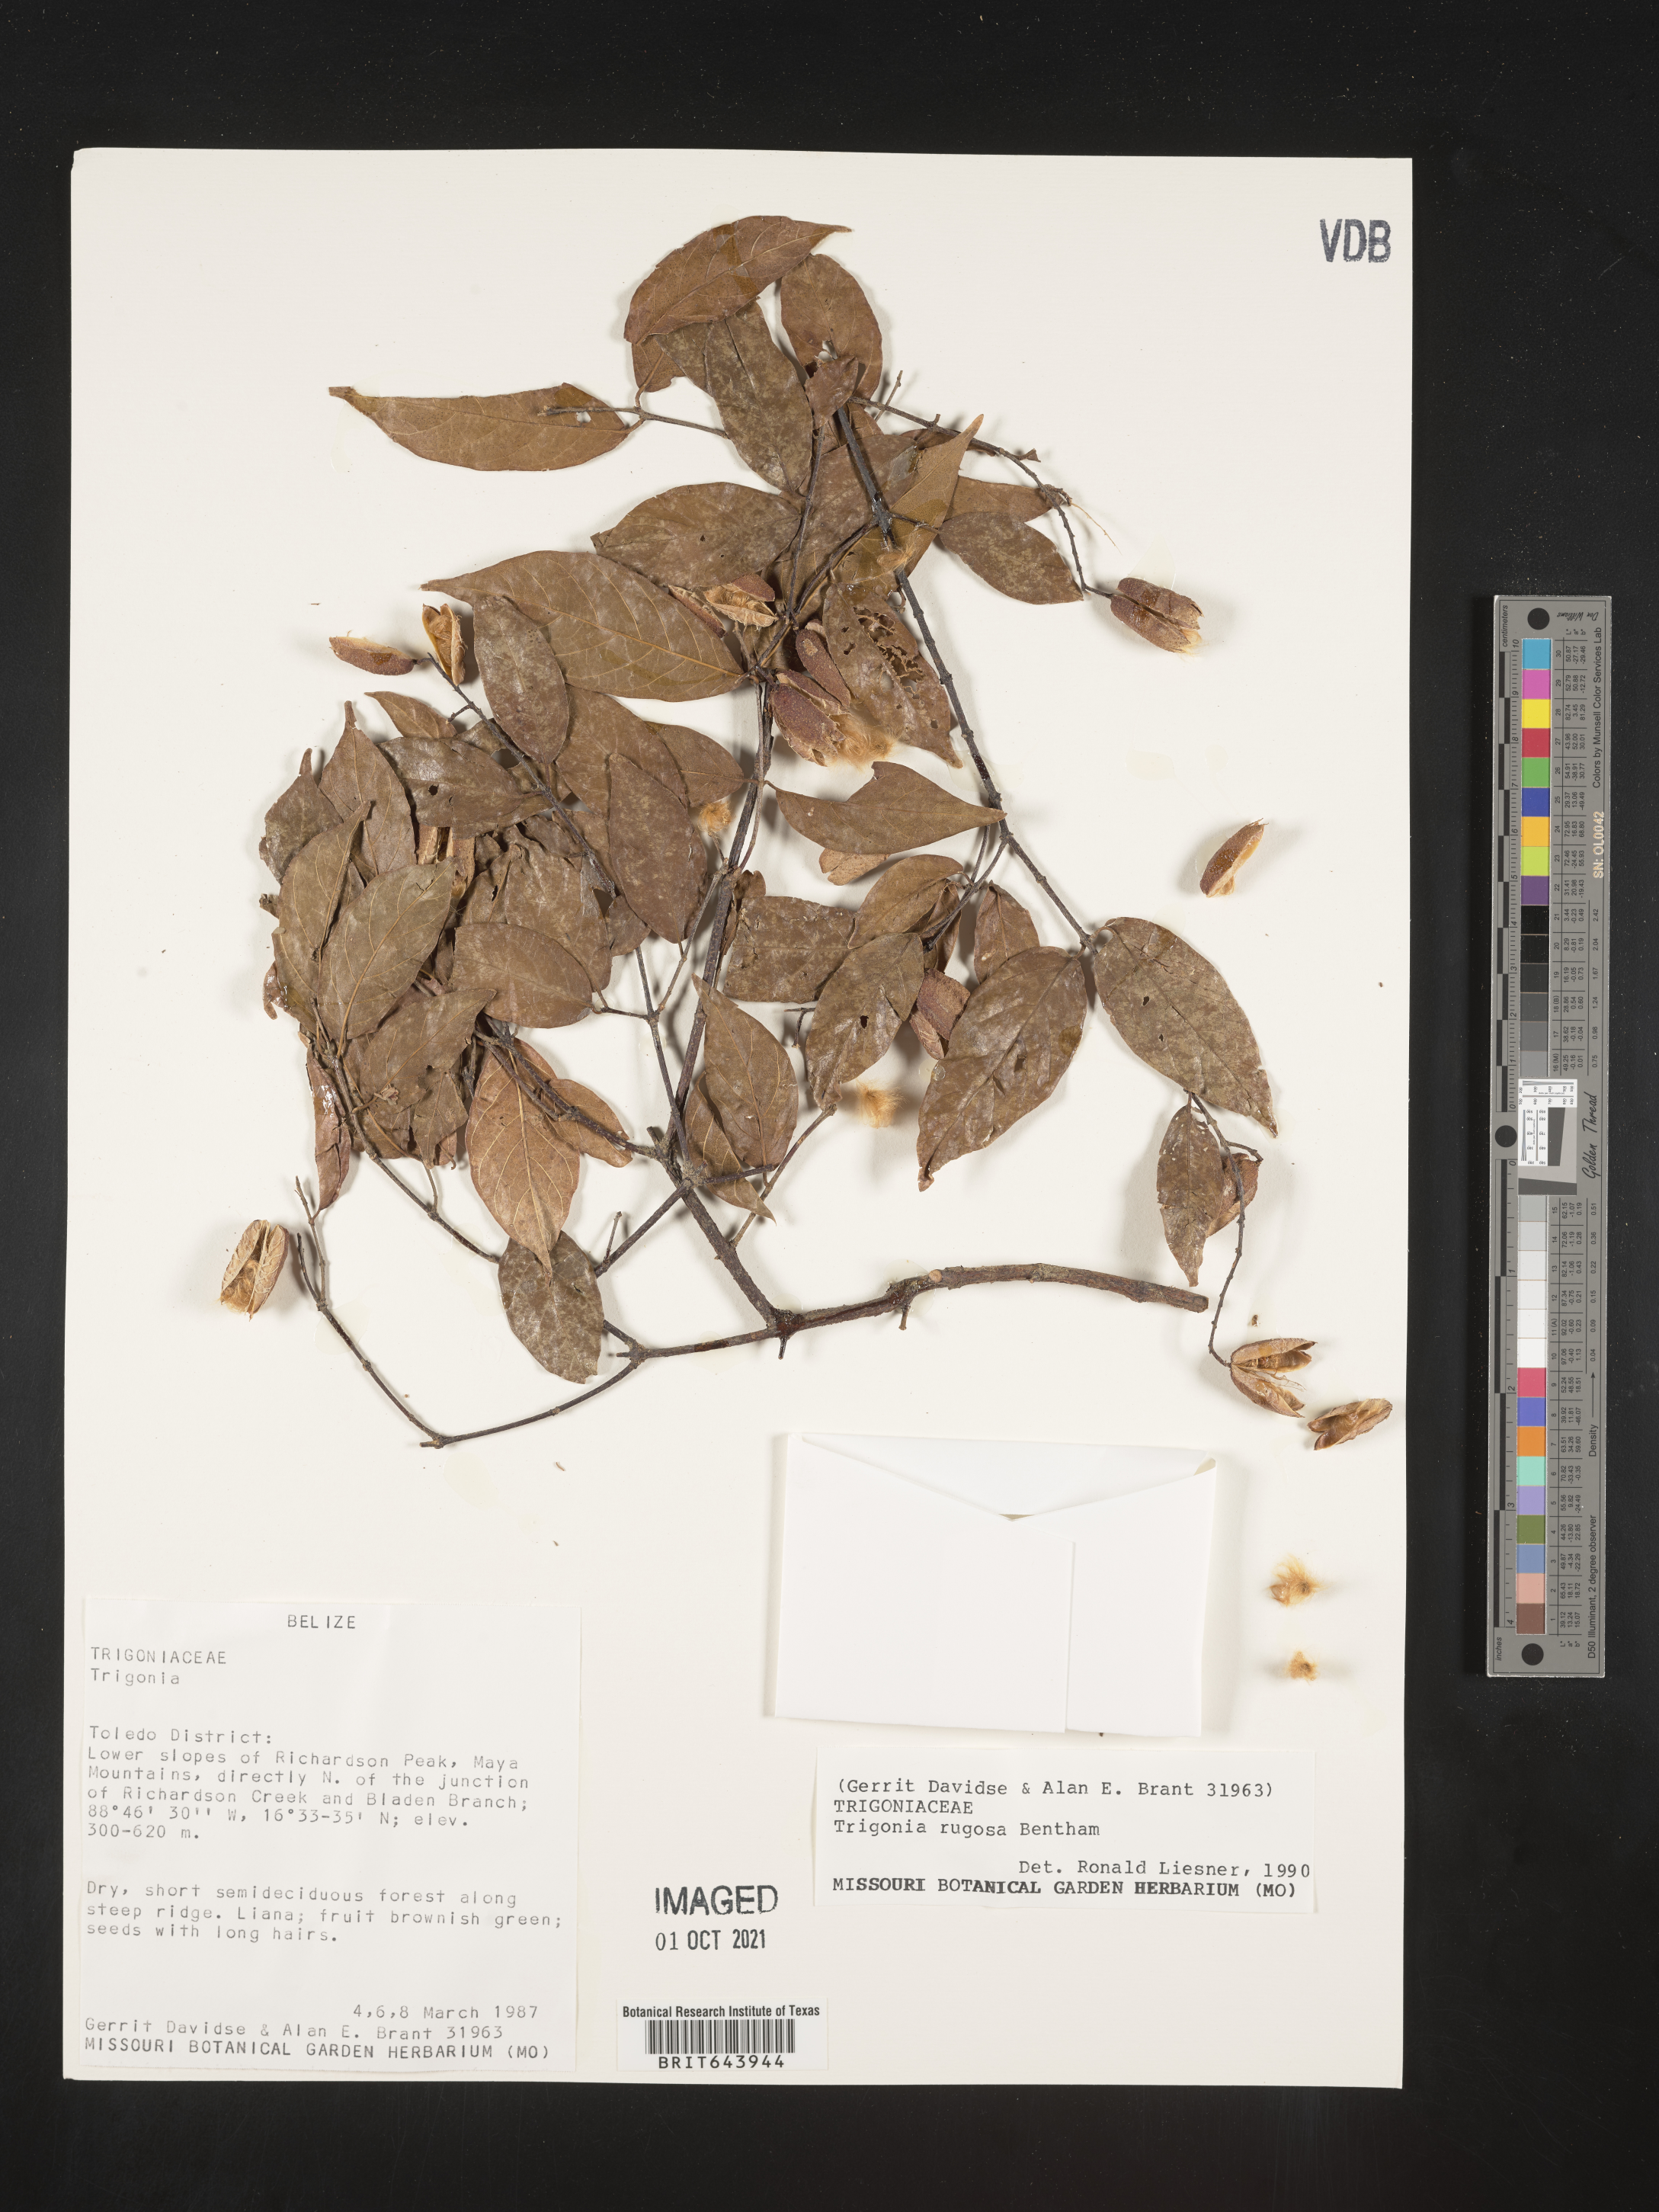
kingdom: Plantae
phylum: Tracheophyta
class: Magnoliopsida
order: Malpighiales
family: Trigoniaceae
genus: Trigonia
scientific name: Trigonia
